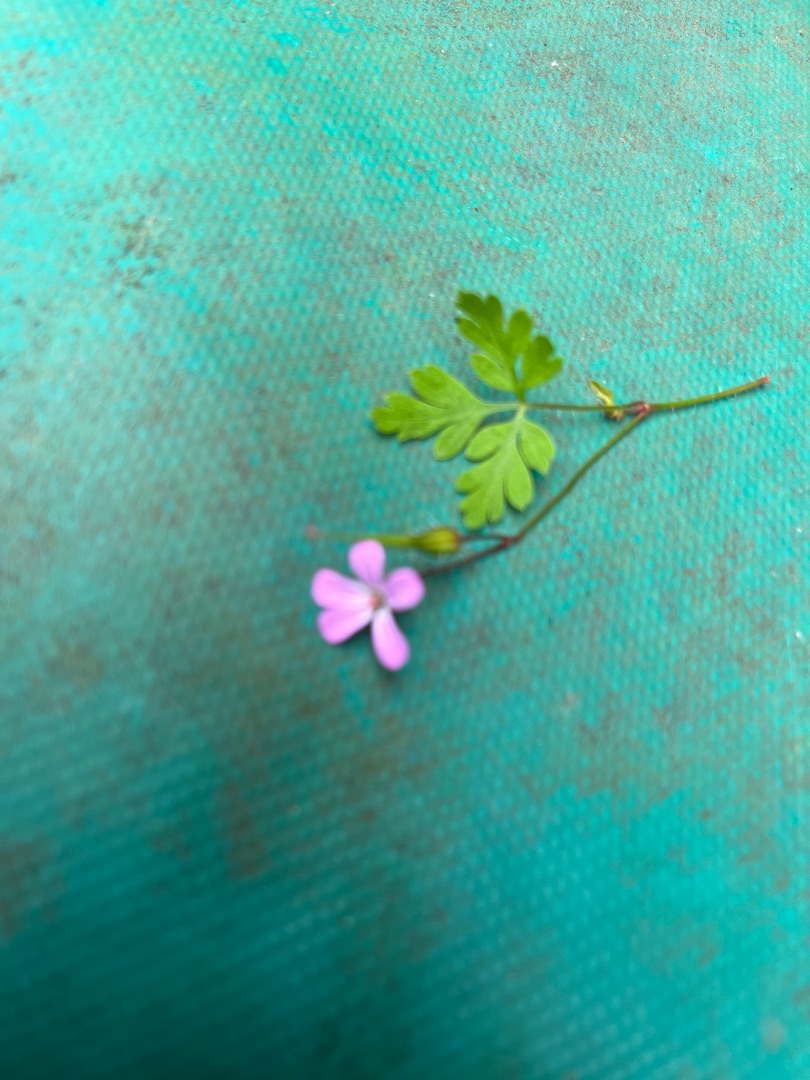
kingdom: Plantae
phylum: Tracheophyta
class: Magnoliopsida
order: Geraniales
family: Geraniaceae
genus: Geranium
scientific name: Geranium robertianum
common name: Stinkende storkenæb
